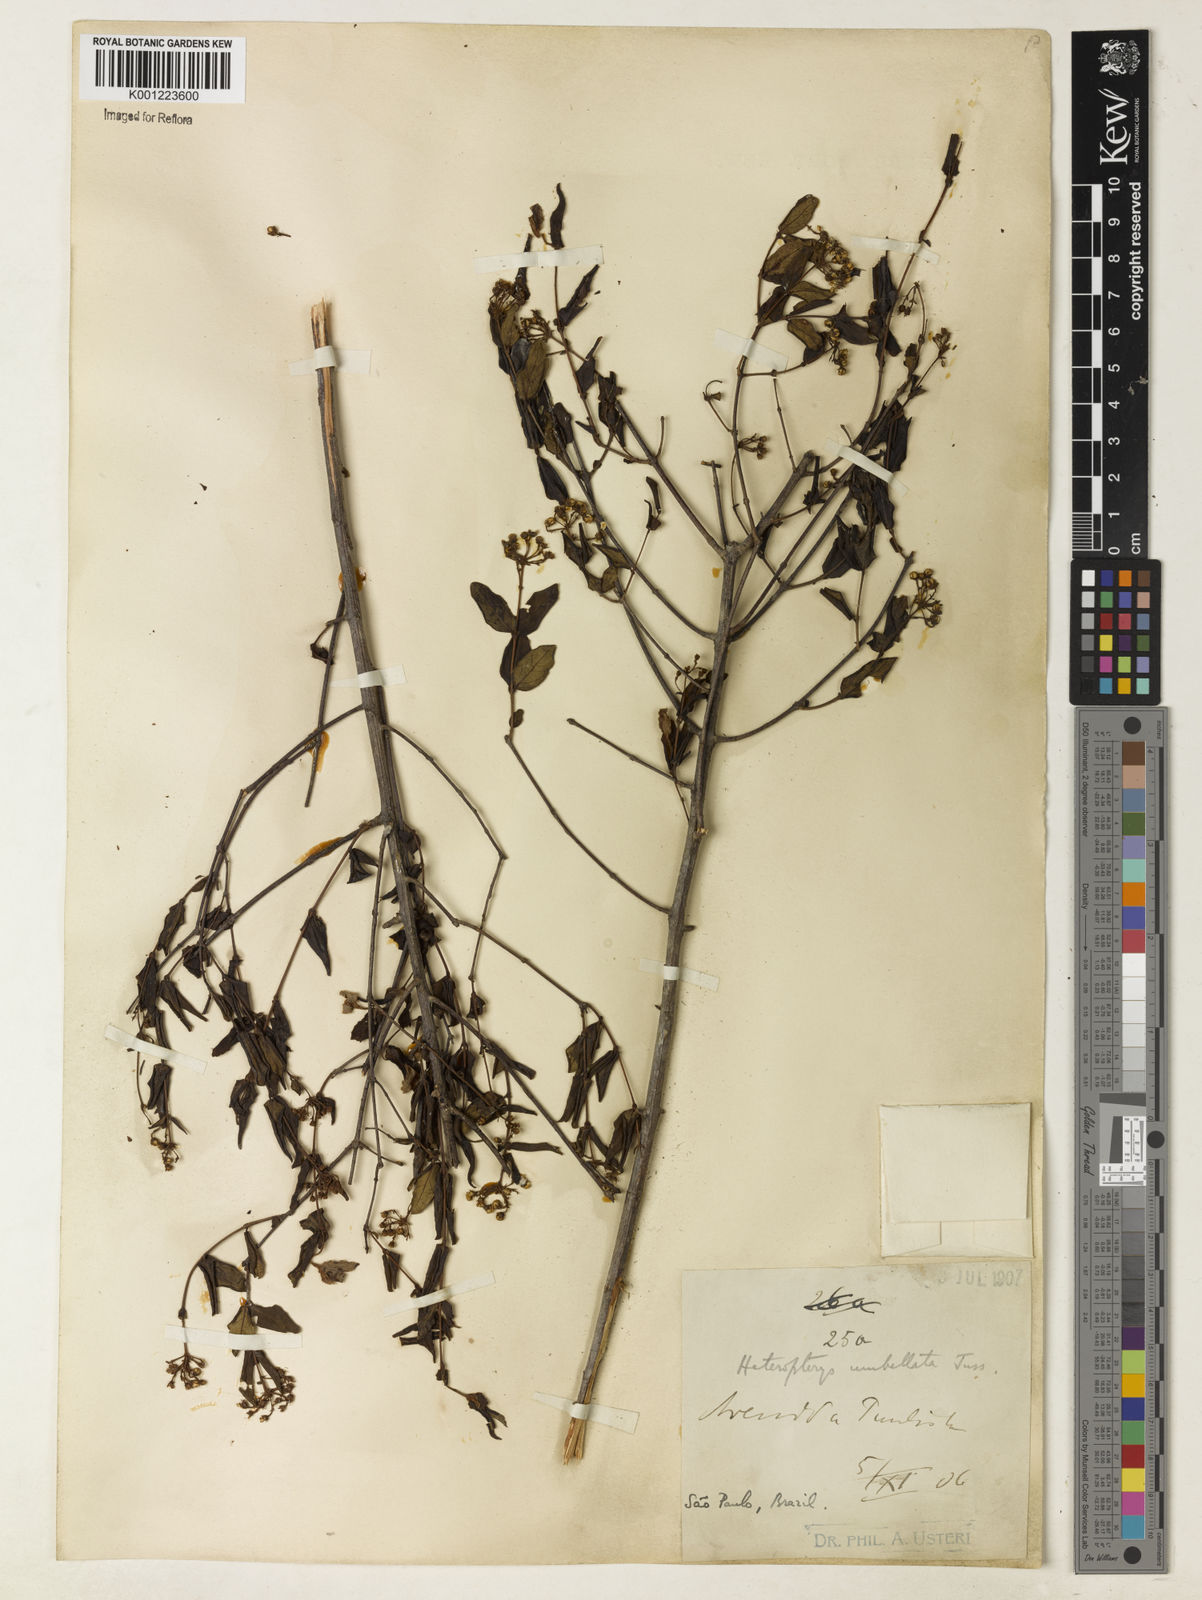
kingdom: Plantae
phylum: Tracheophyta
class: Magnoliopsida
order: Malpighiales
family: Malpighiaceae
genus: Heteropterys
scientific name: Heteropterys umbellata
